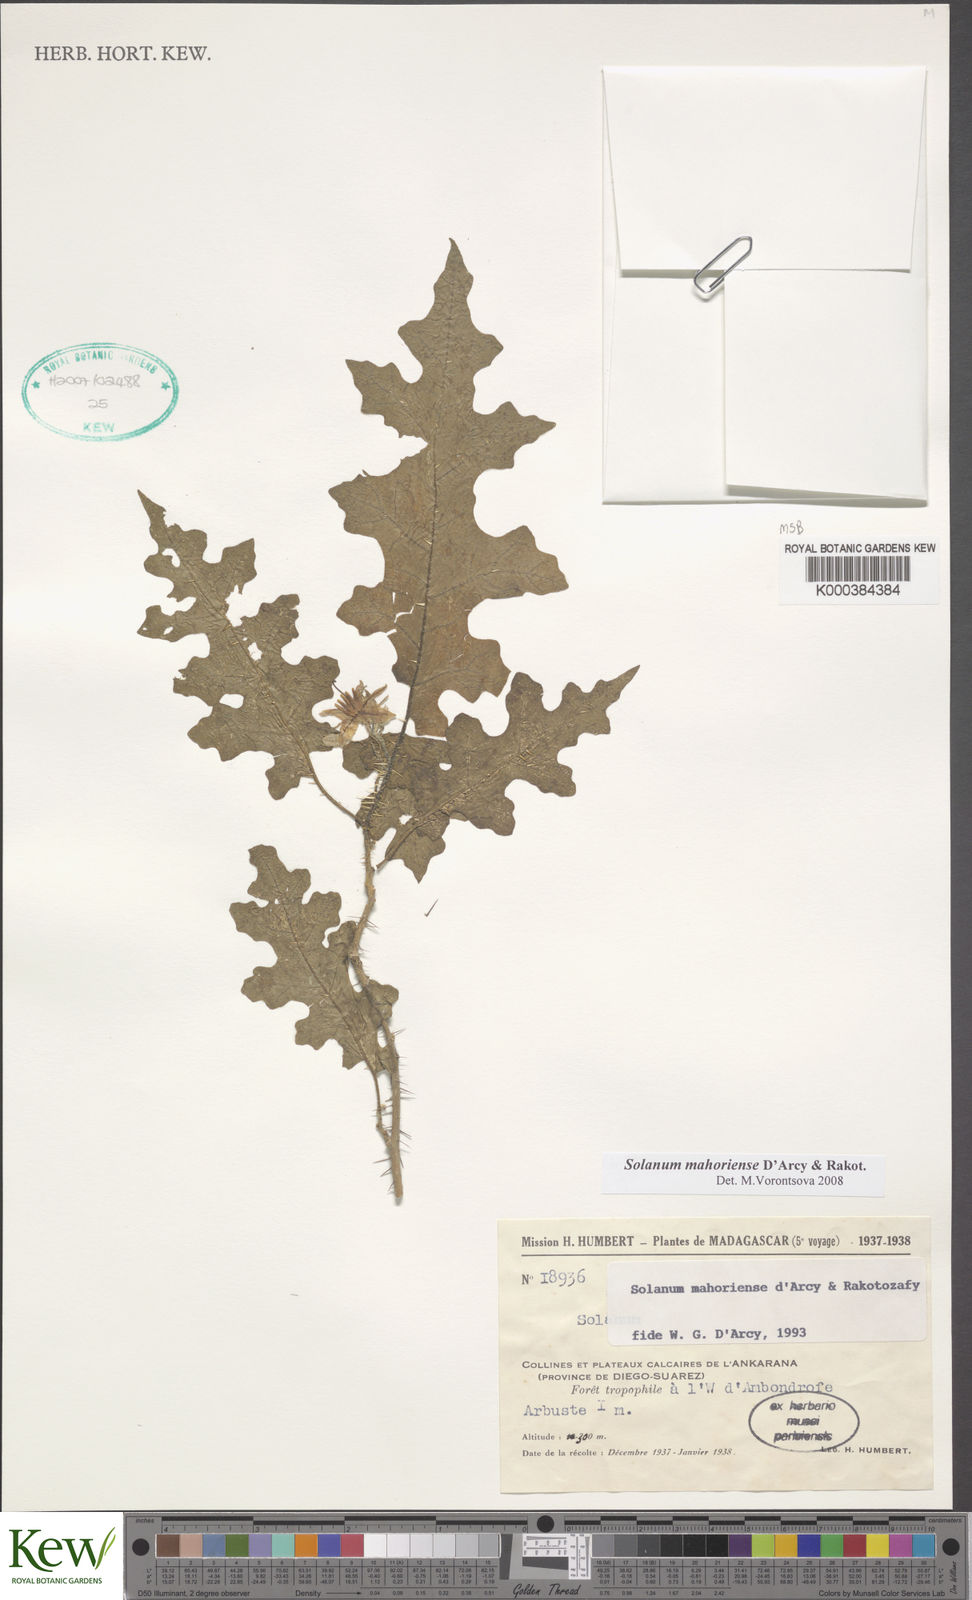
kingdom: Plantae
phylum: Tracheophyta
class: Magnoliopsida
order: Solanales
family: Solanaceae
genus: Solanum
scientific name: Solanum mahoriense
